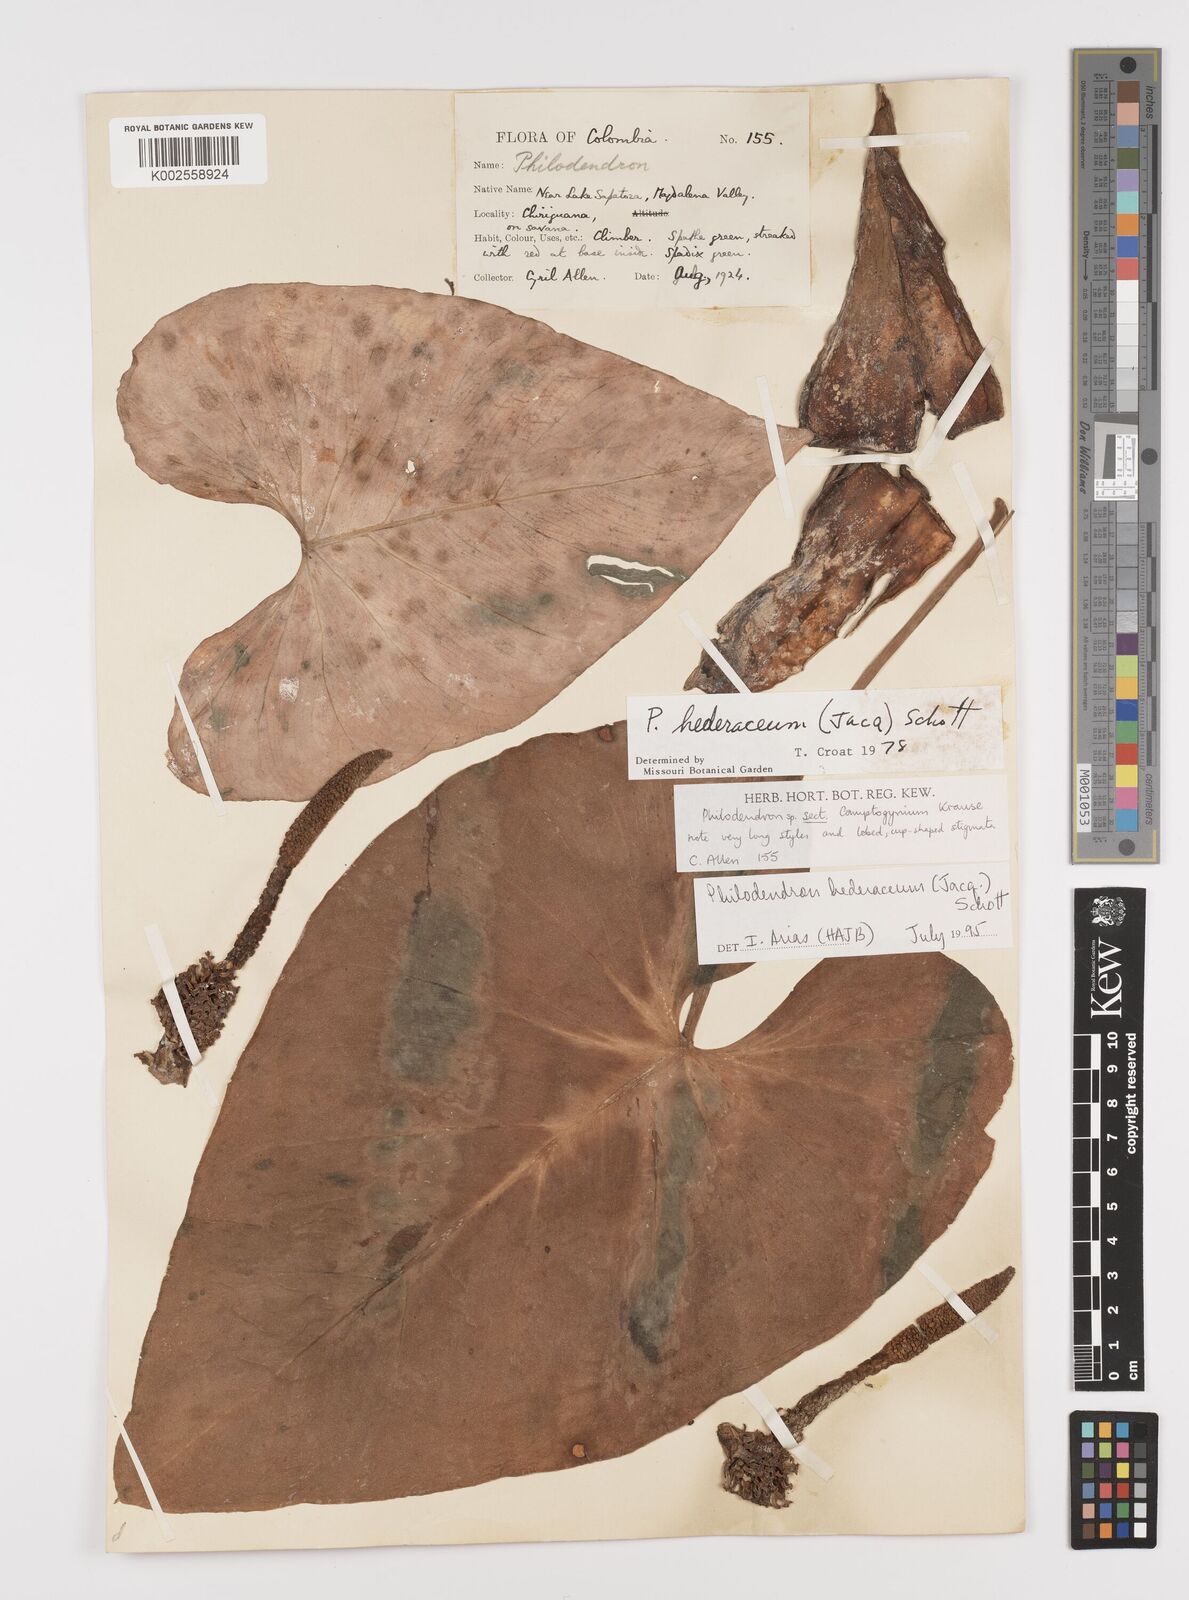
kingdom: Plantae
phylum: Tracheophyta
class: Liliopsida
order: Alismatales
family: Araceae
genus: Philodendron
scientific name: Philodendron hederaceum
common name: Vilevine
